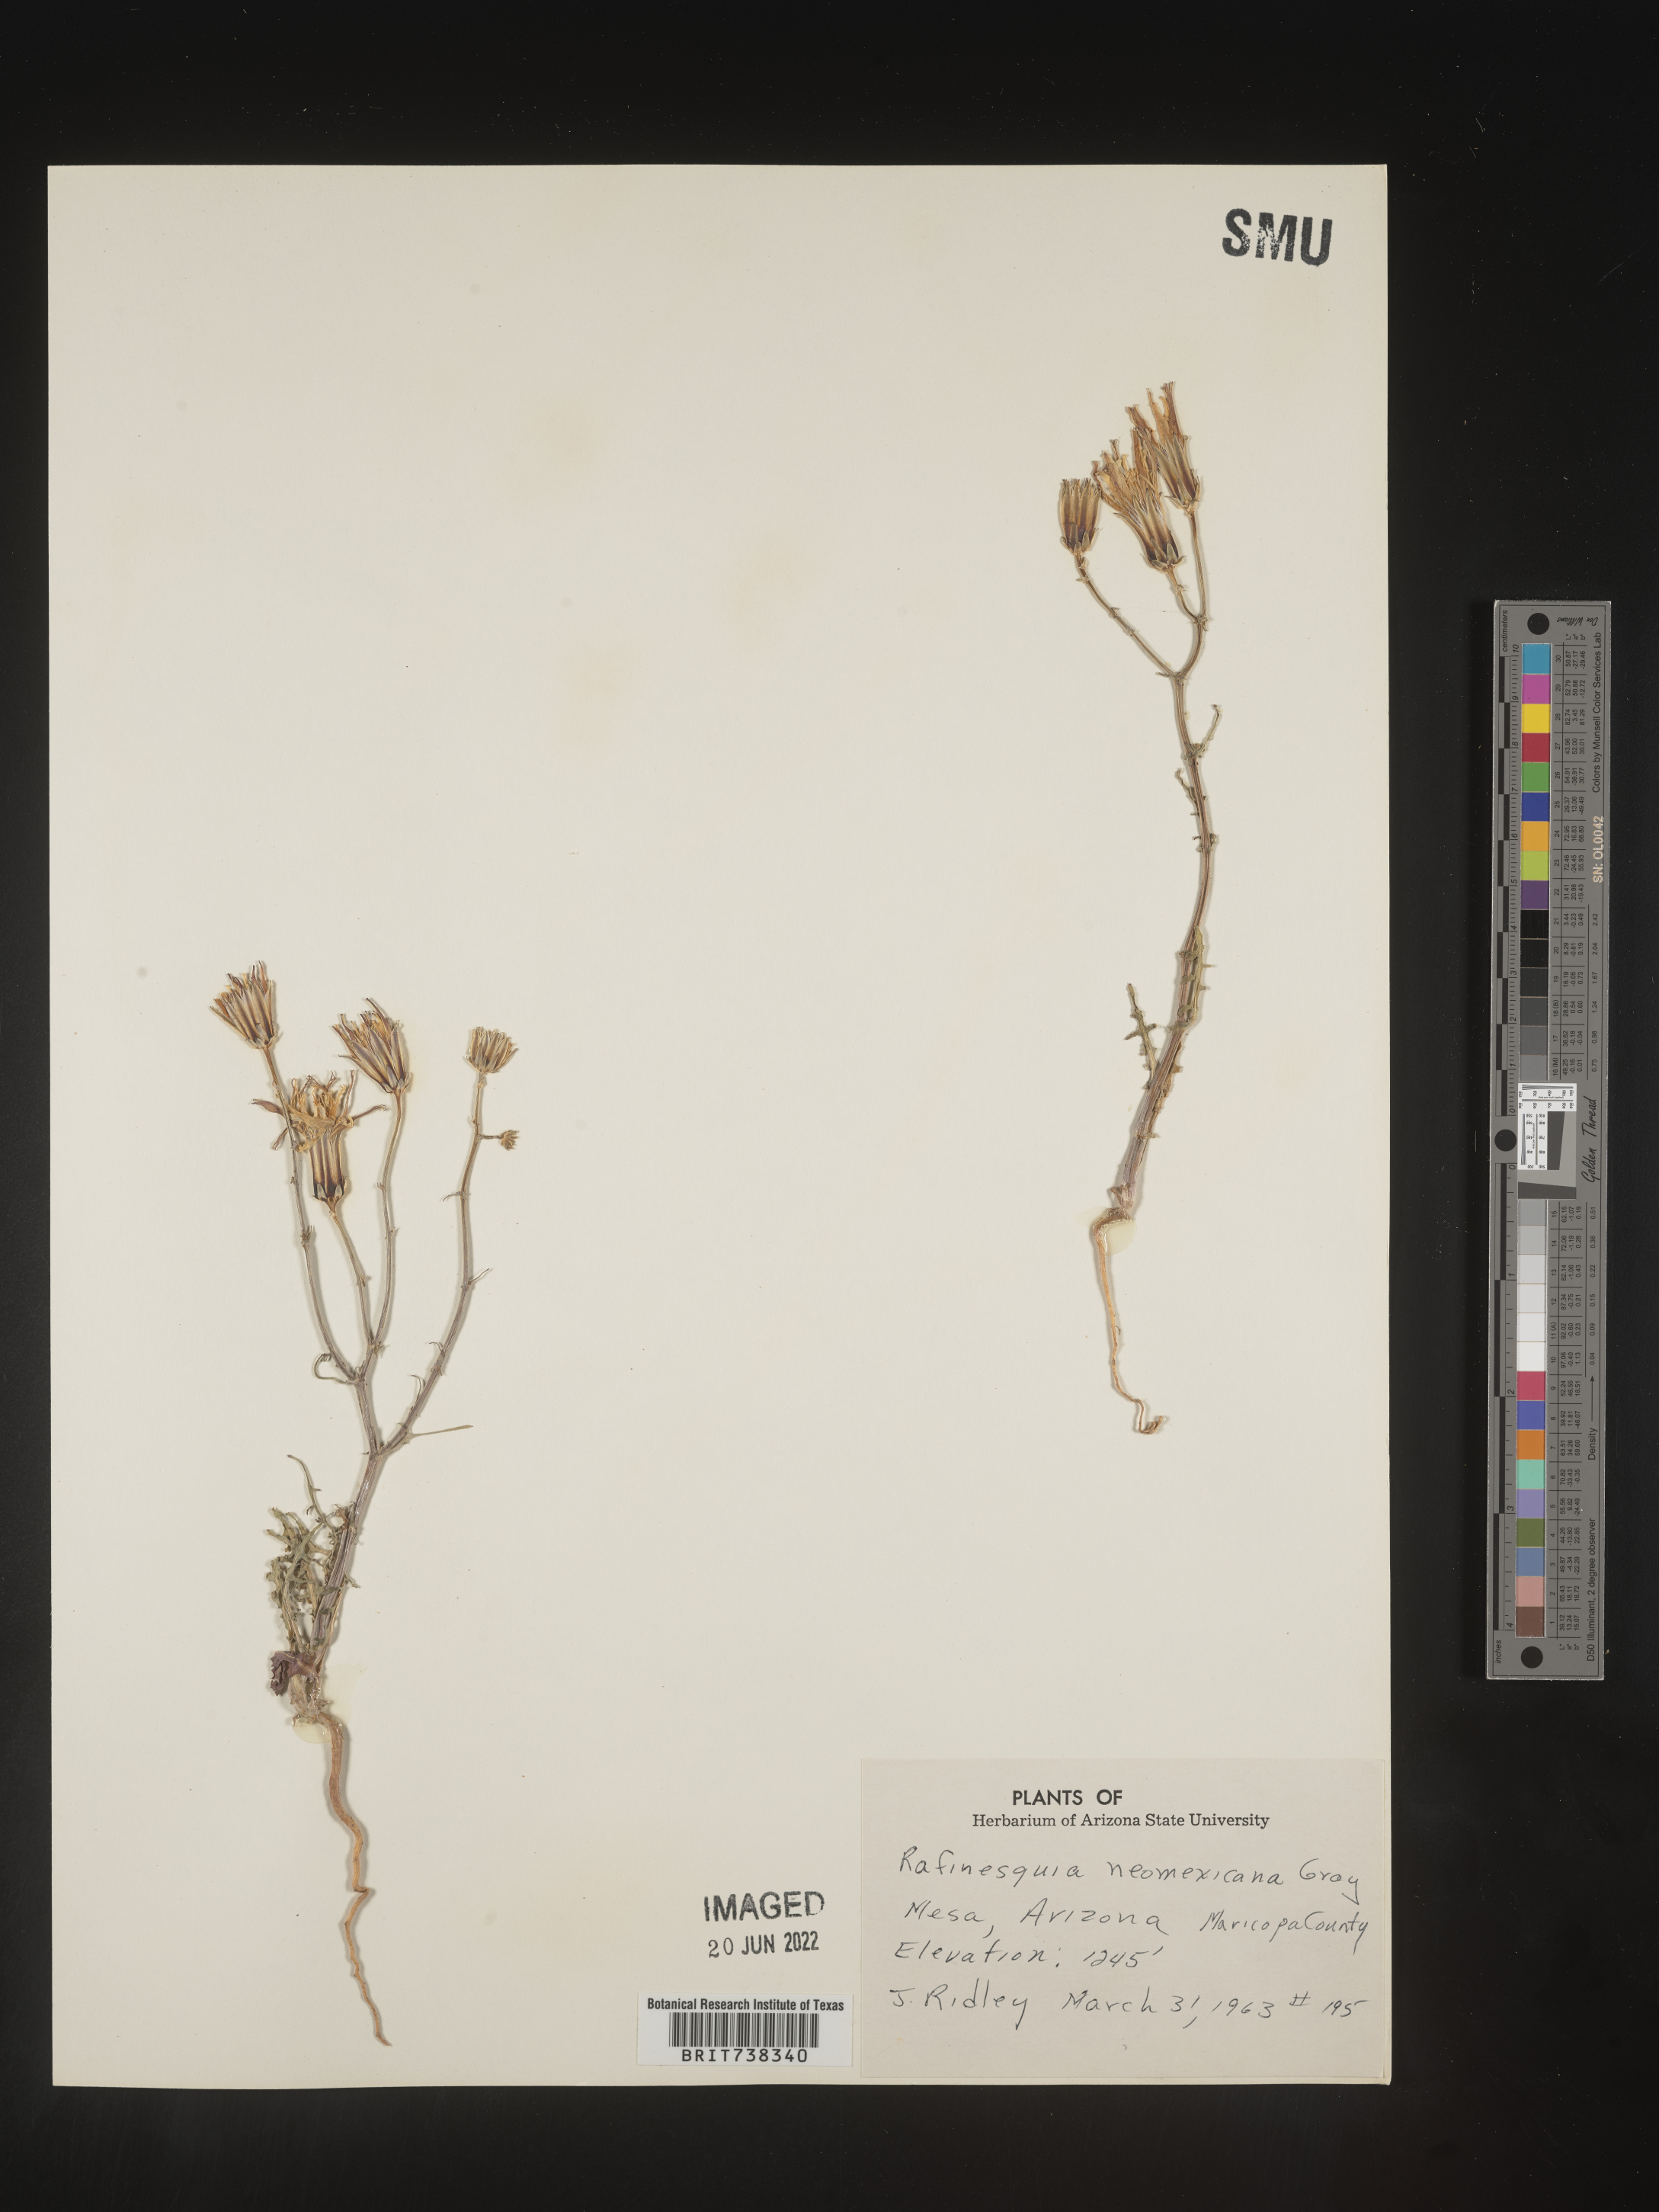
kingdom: Plantae
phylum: Tracheophyta
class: Magnoliopsida
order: Asterales
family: Asteraceae
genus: Rafinesquia
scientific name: Rafinesquia
